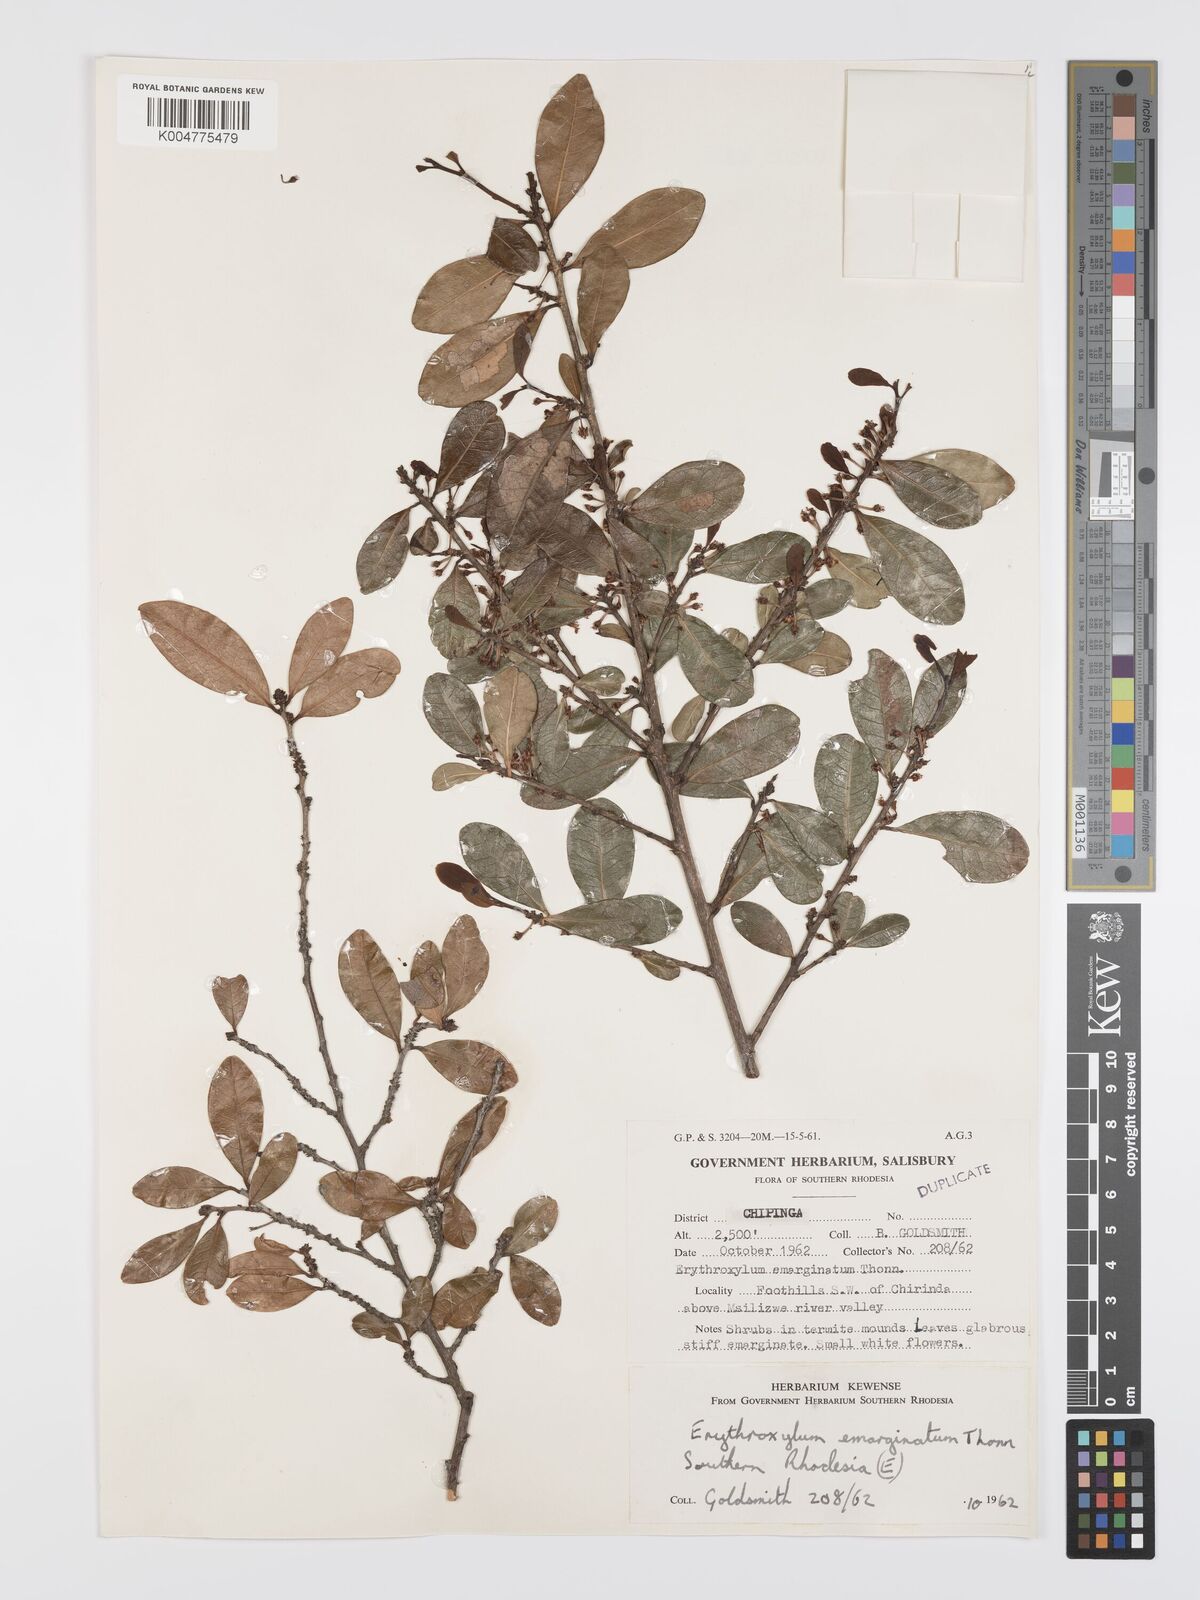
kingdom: Plantae
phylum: Tracheophyta
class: Magnoliopsida
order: Malpighiales
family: Erythroxylaceae
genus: Erythroxylum
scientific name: Erythroxylum emarginatum
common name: African coca-tree
